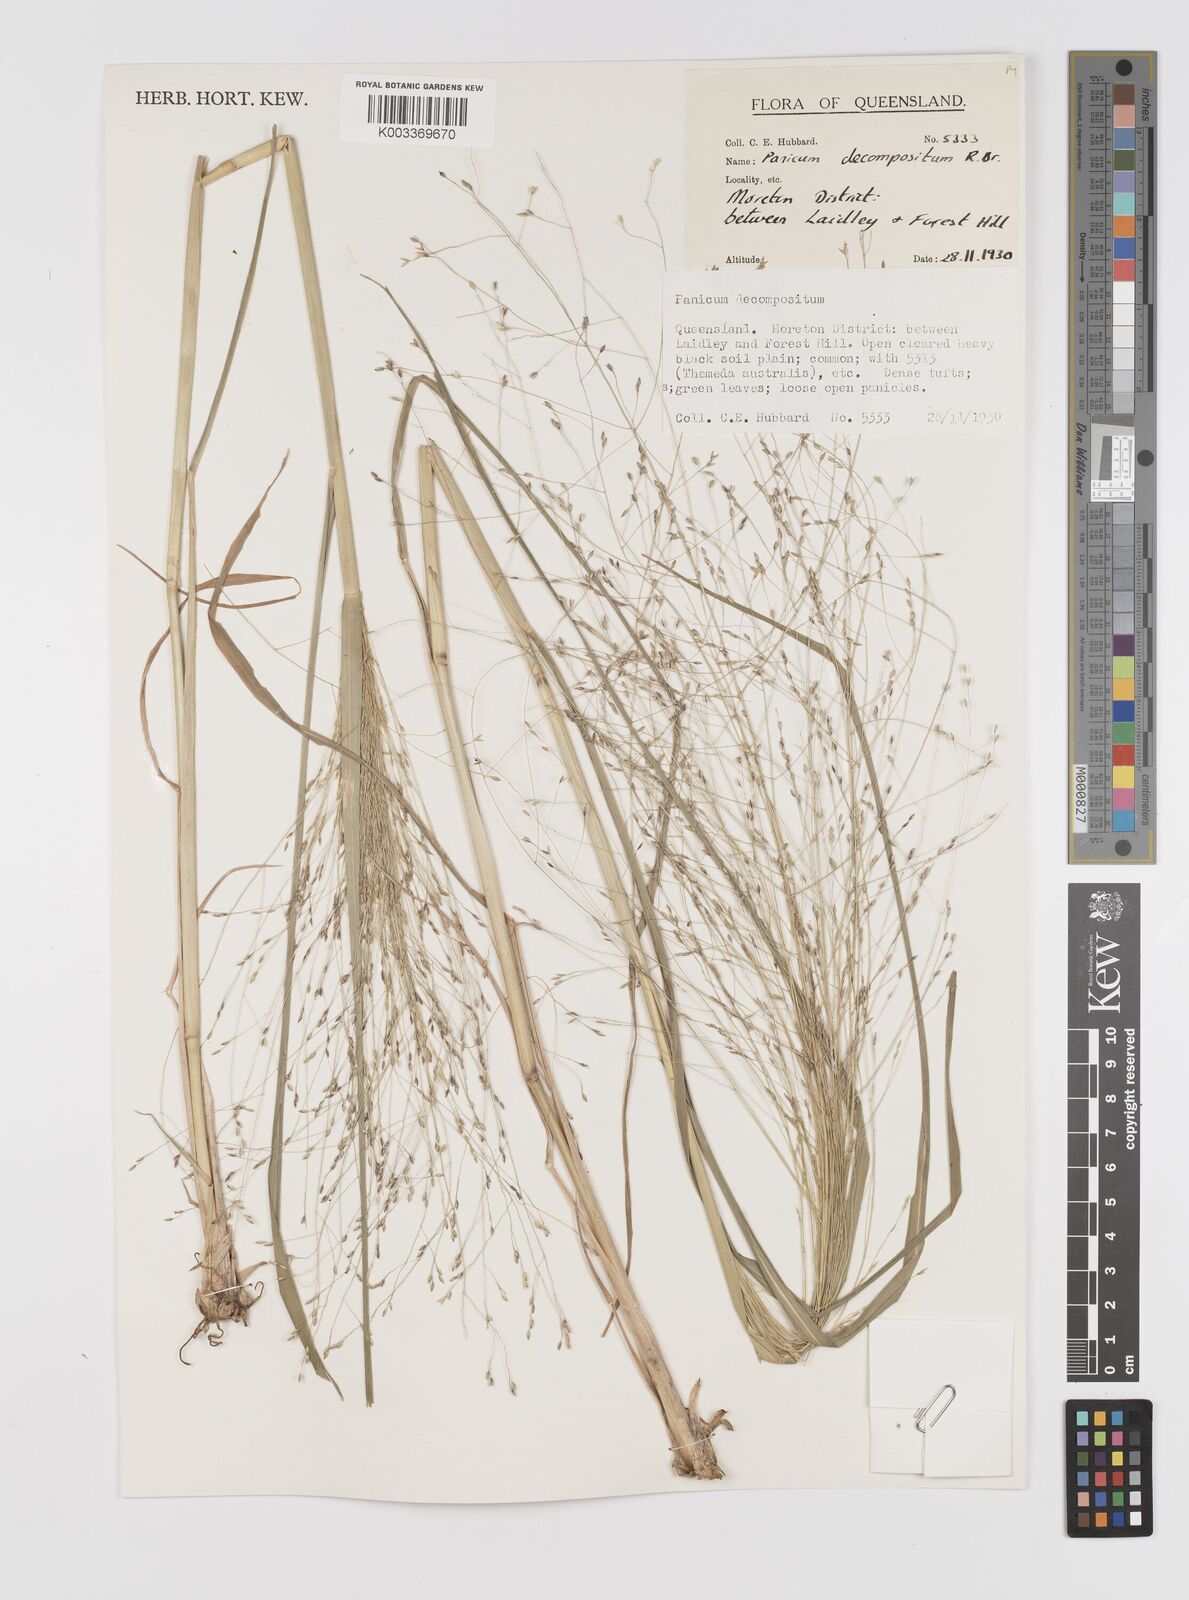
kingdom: Plantae
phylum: Tracheophyta
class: Liliopsida
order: Poales
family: Poaceae
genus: Panicum
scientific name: Panicum decompositum
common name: Australian millet
